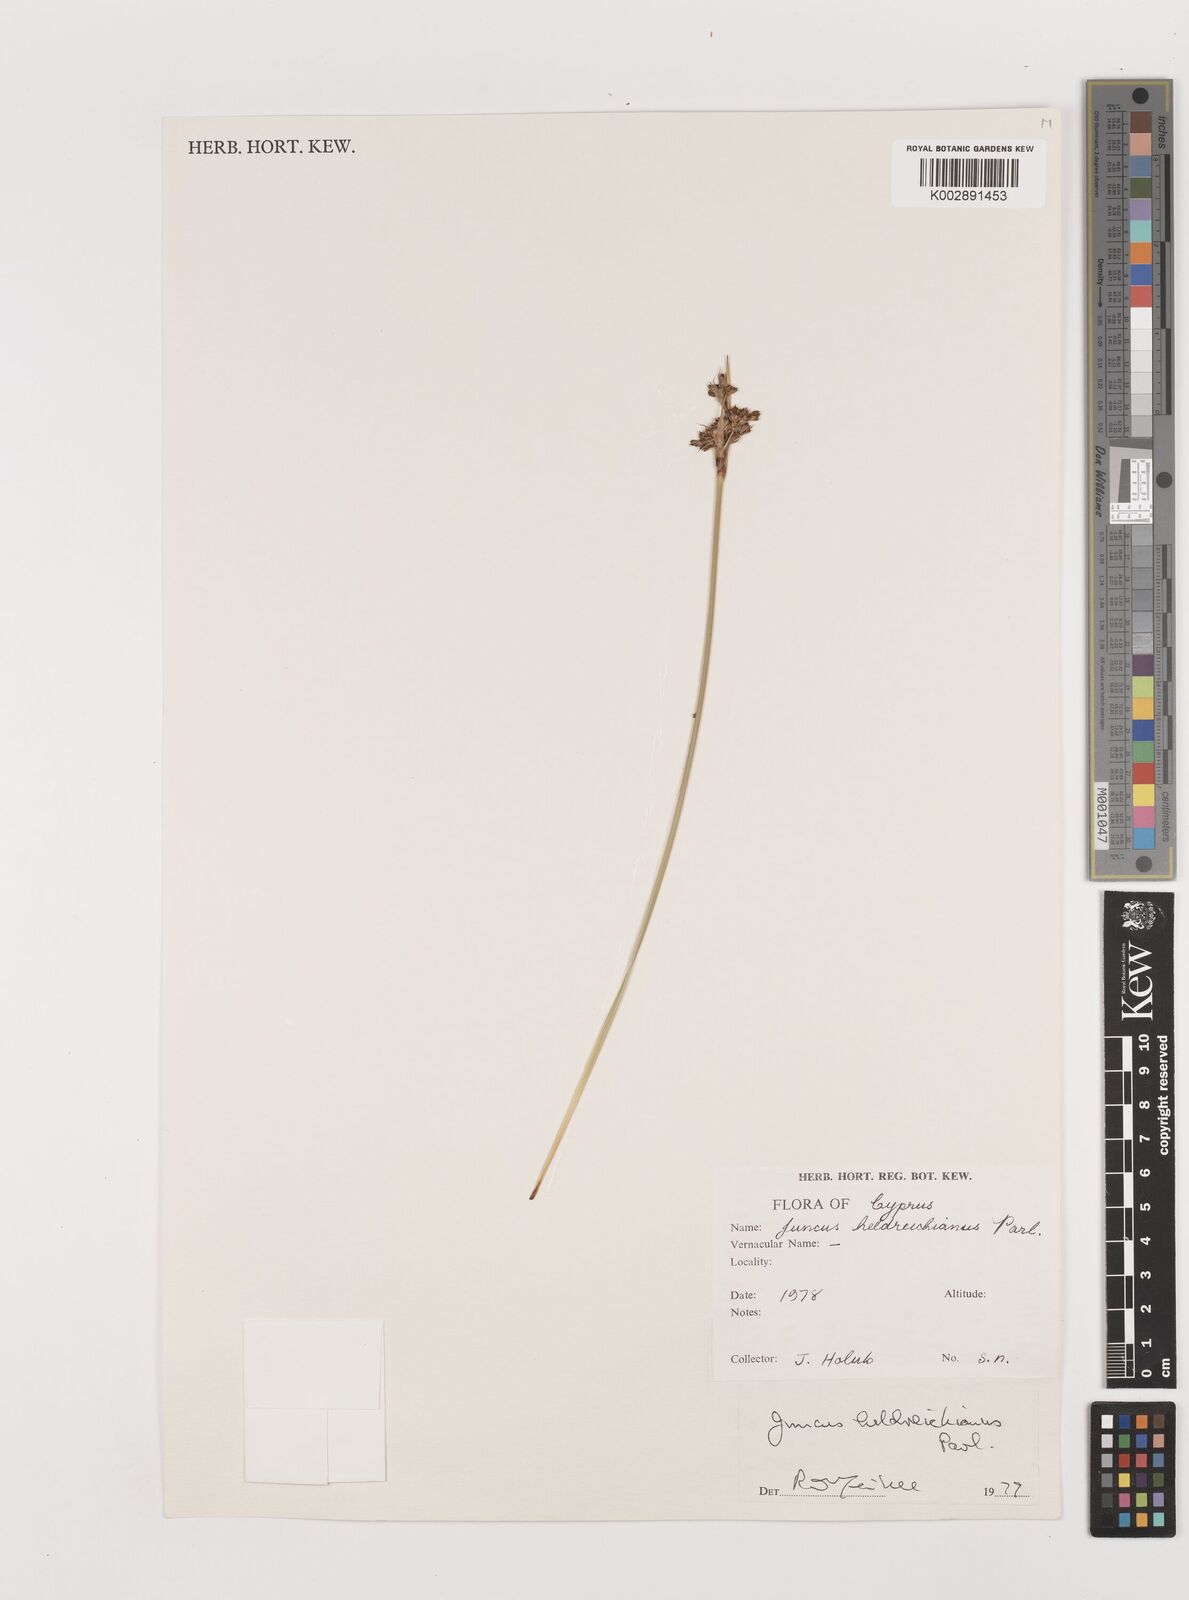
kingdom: Plantae
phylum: Tracheophyta
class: Liliopsida
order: Poales
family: Juncaceae
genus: Juncus
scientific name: Juncus heldreichianus
